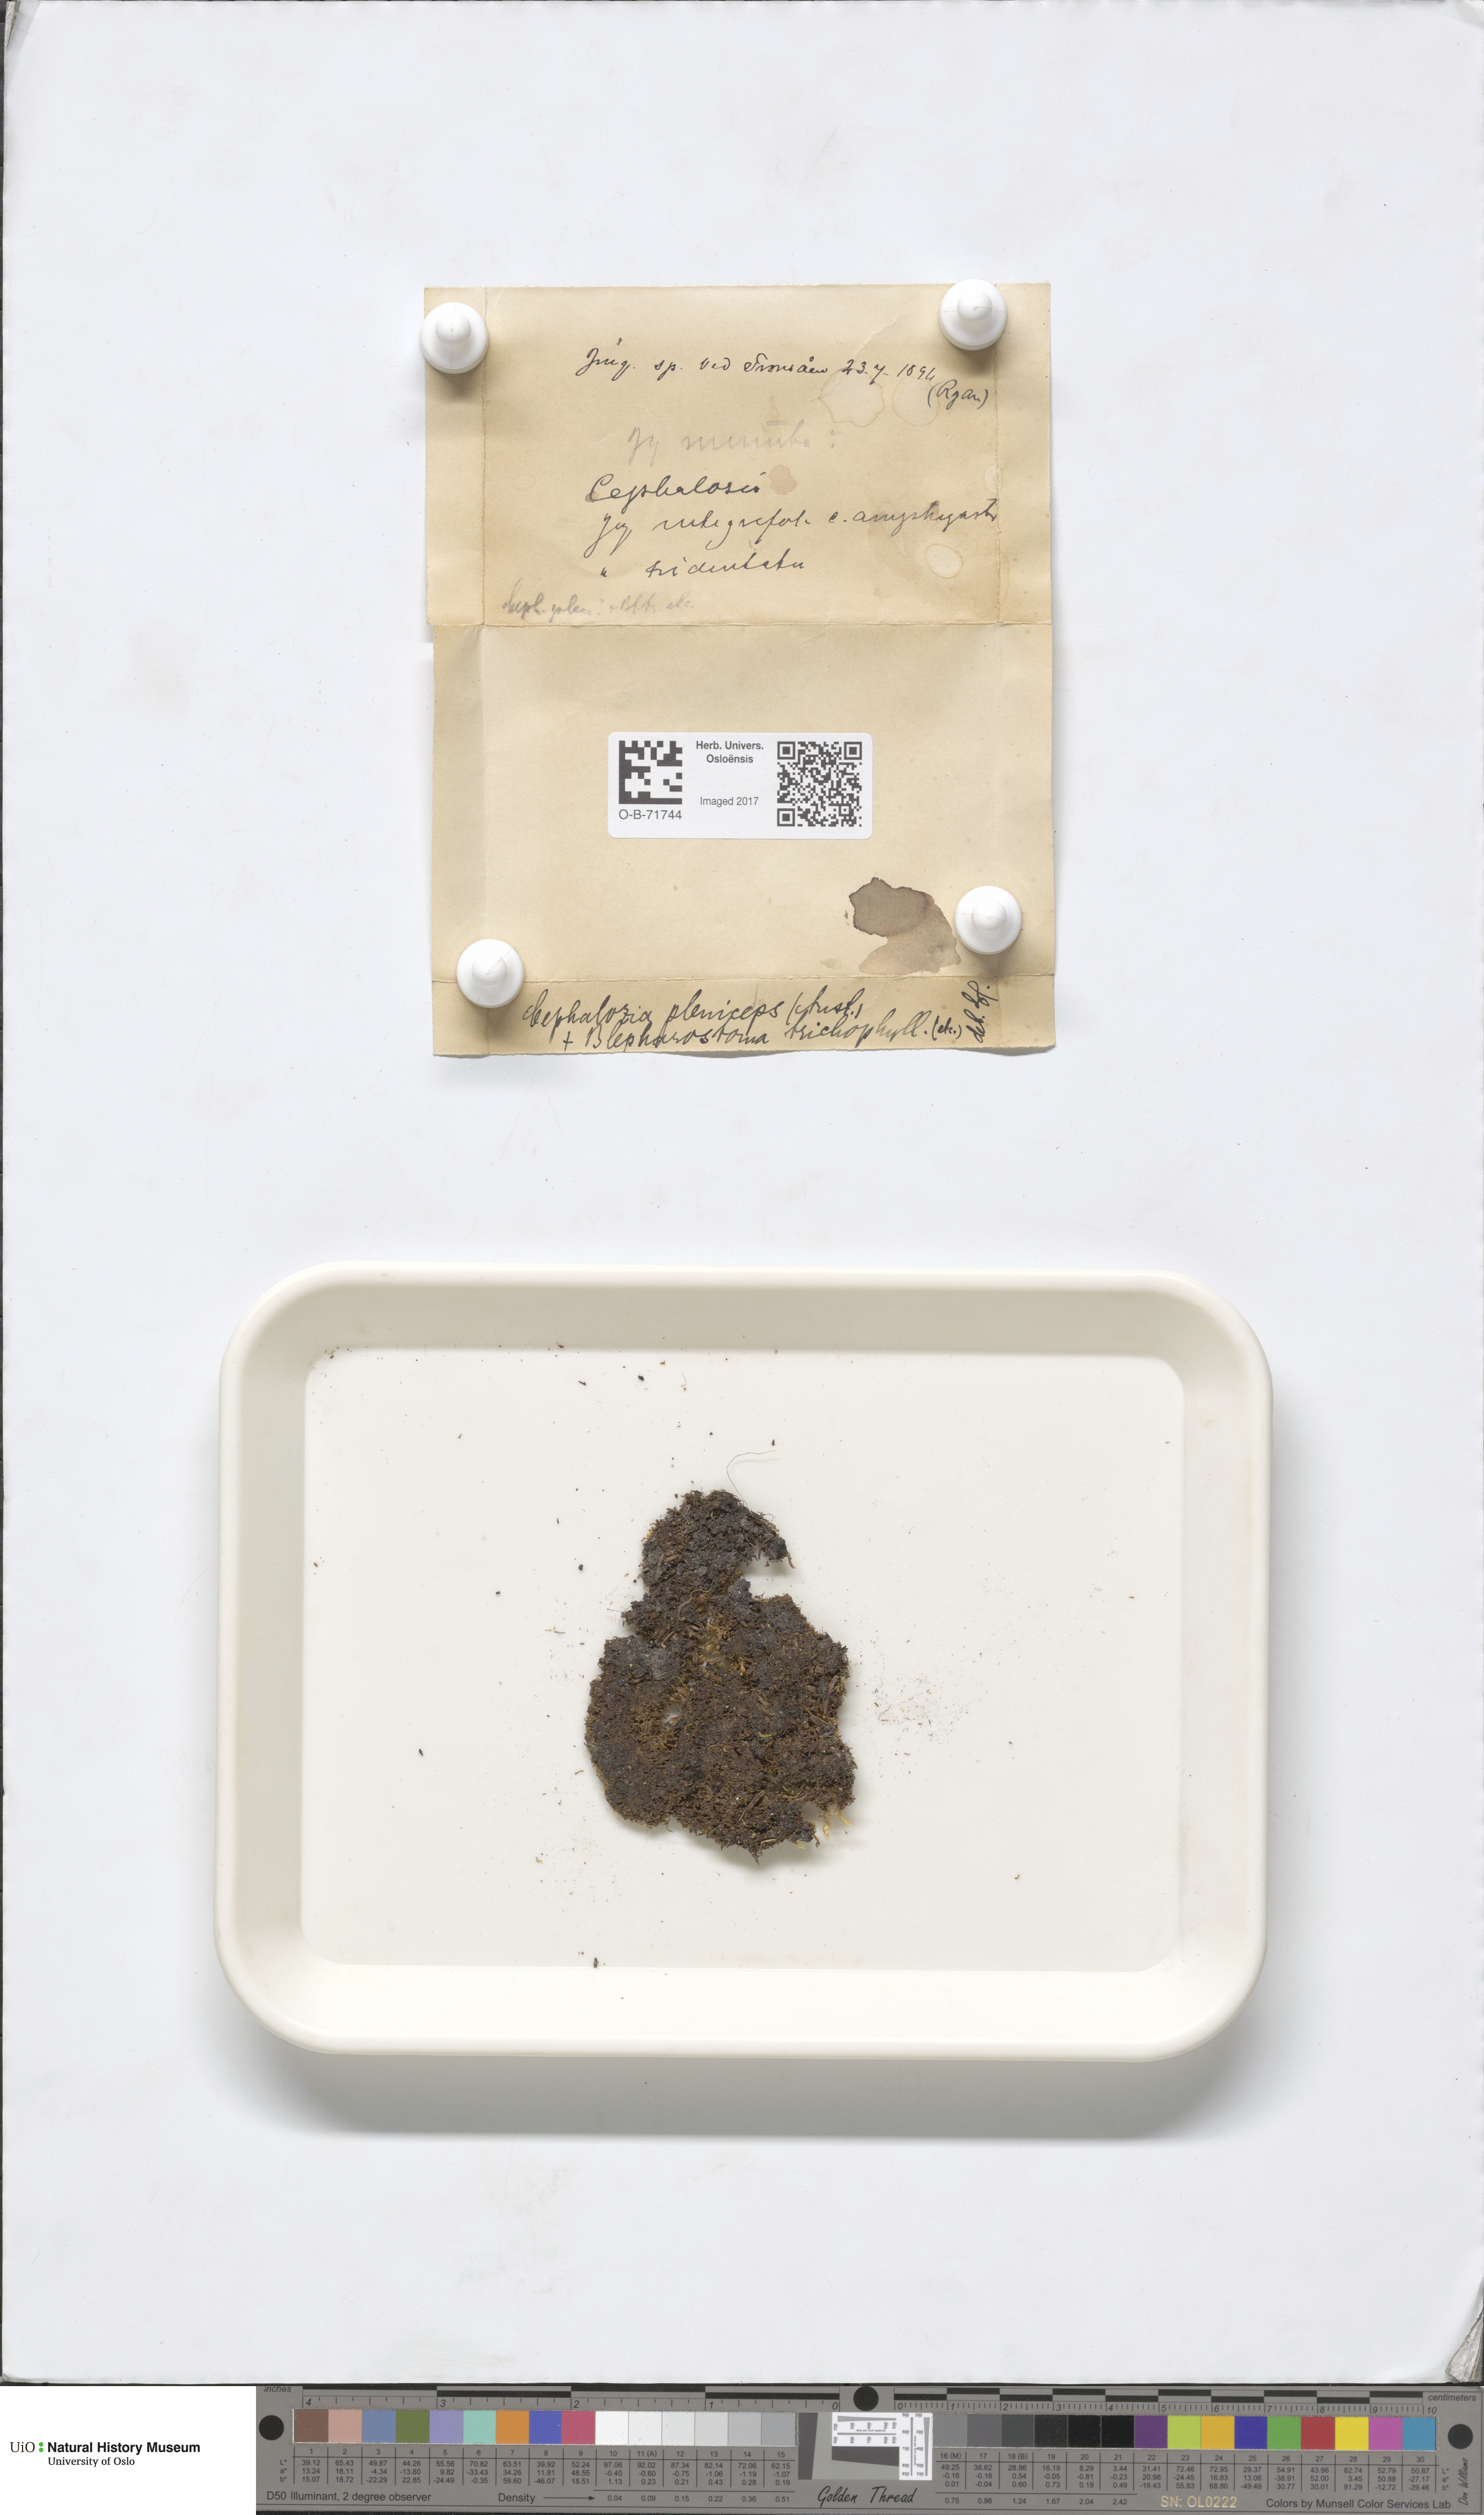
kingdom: Plantae
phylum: Marchantiophyta
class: Jungermanniopsida
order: Jungermanniales
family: Cephaloziaceae
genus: Fuscocephaloziopsis
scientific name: Fuscocephaloziopsis pleniceps
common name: Blunt pincerwort
